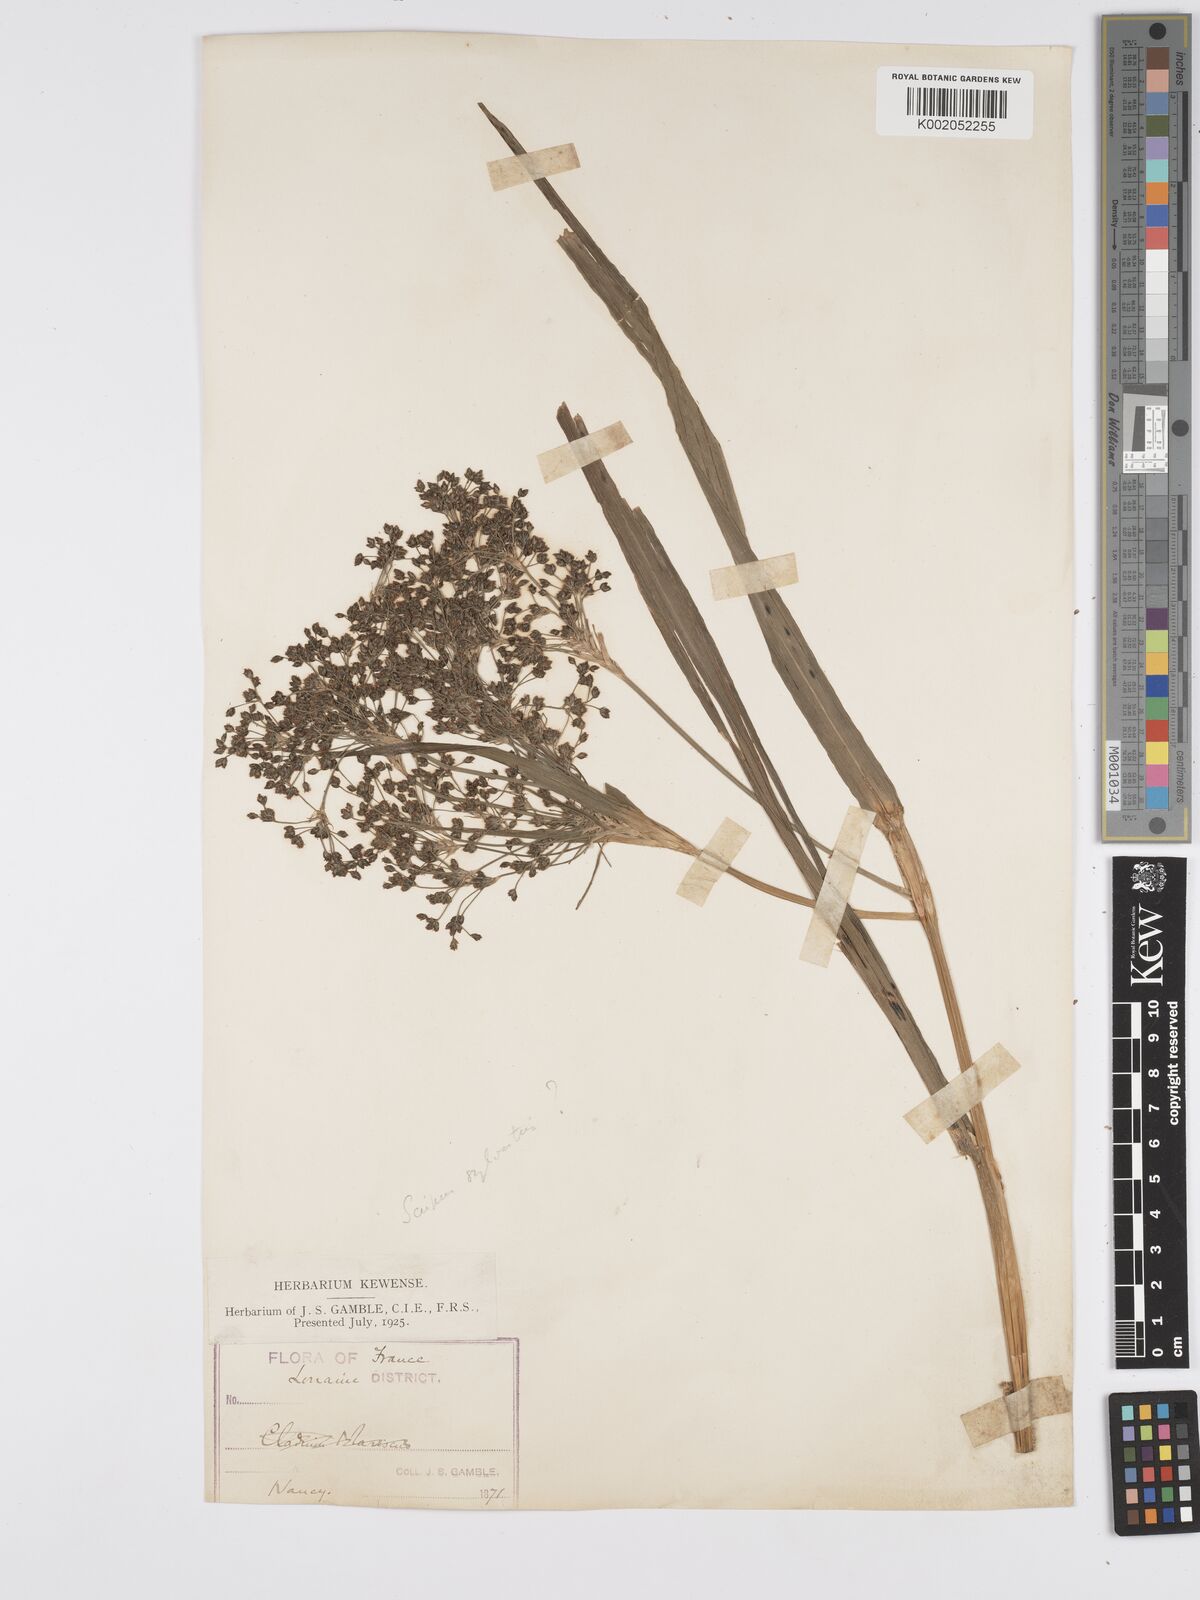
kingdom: Plantae
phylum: Tracheophyta
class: Liliopsida
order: Poales
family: Cyperaceae
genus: Scirpus
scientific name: Scirpus sylvaticus
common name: Wood club-rush
